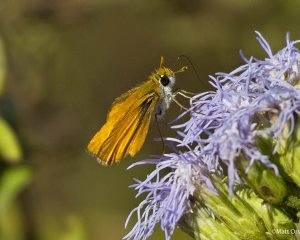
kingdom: Animalia
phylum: Arthropoda
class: Insecta
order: Lepidoptera
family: Hesperiidae
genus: Copaeodes
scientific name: Copaeodes minima
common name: Southern Skipperling
